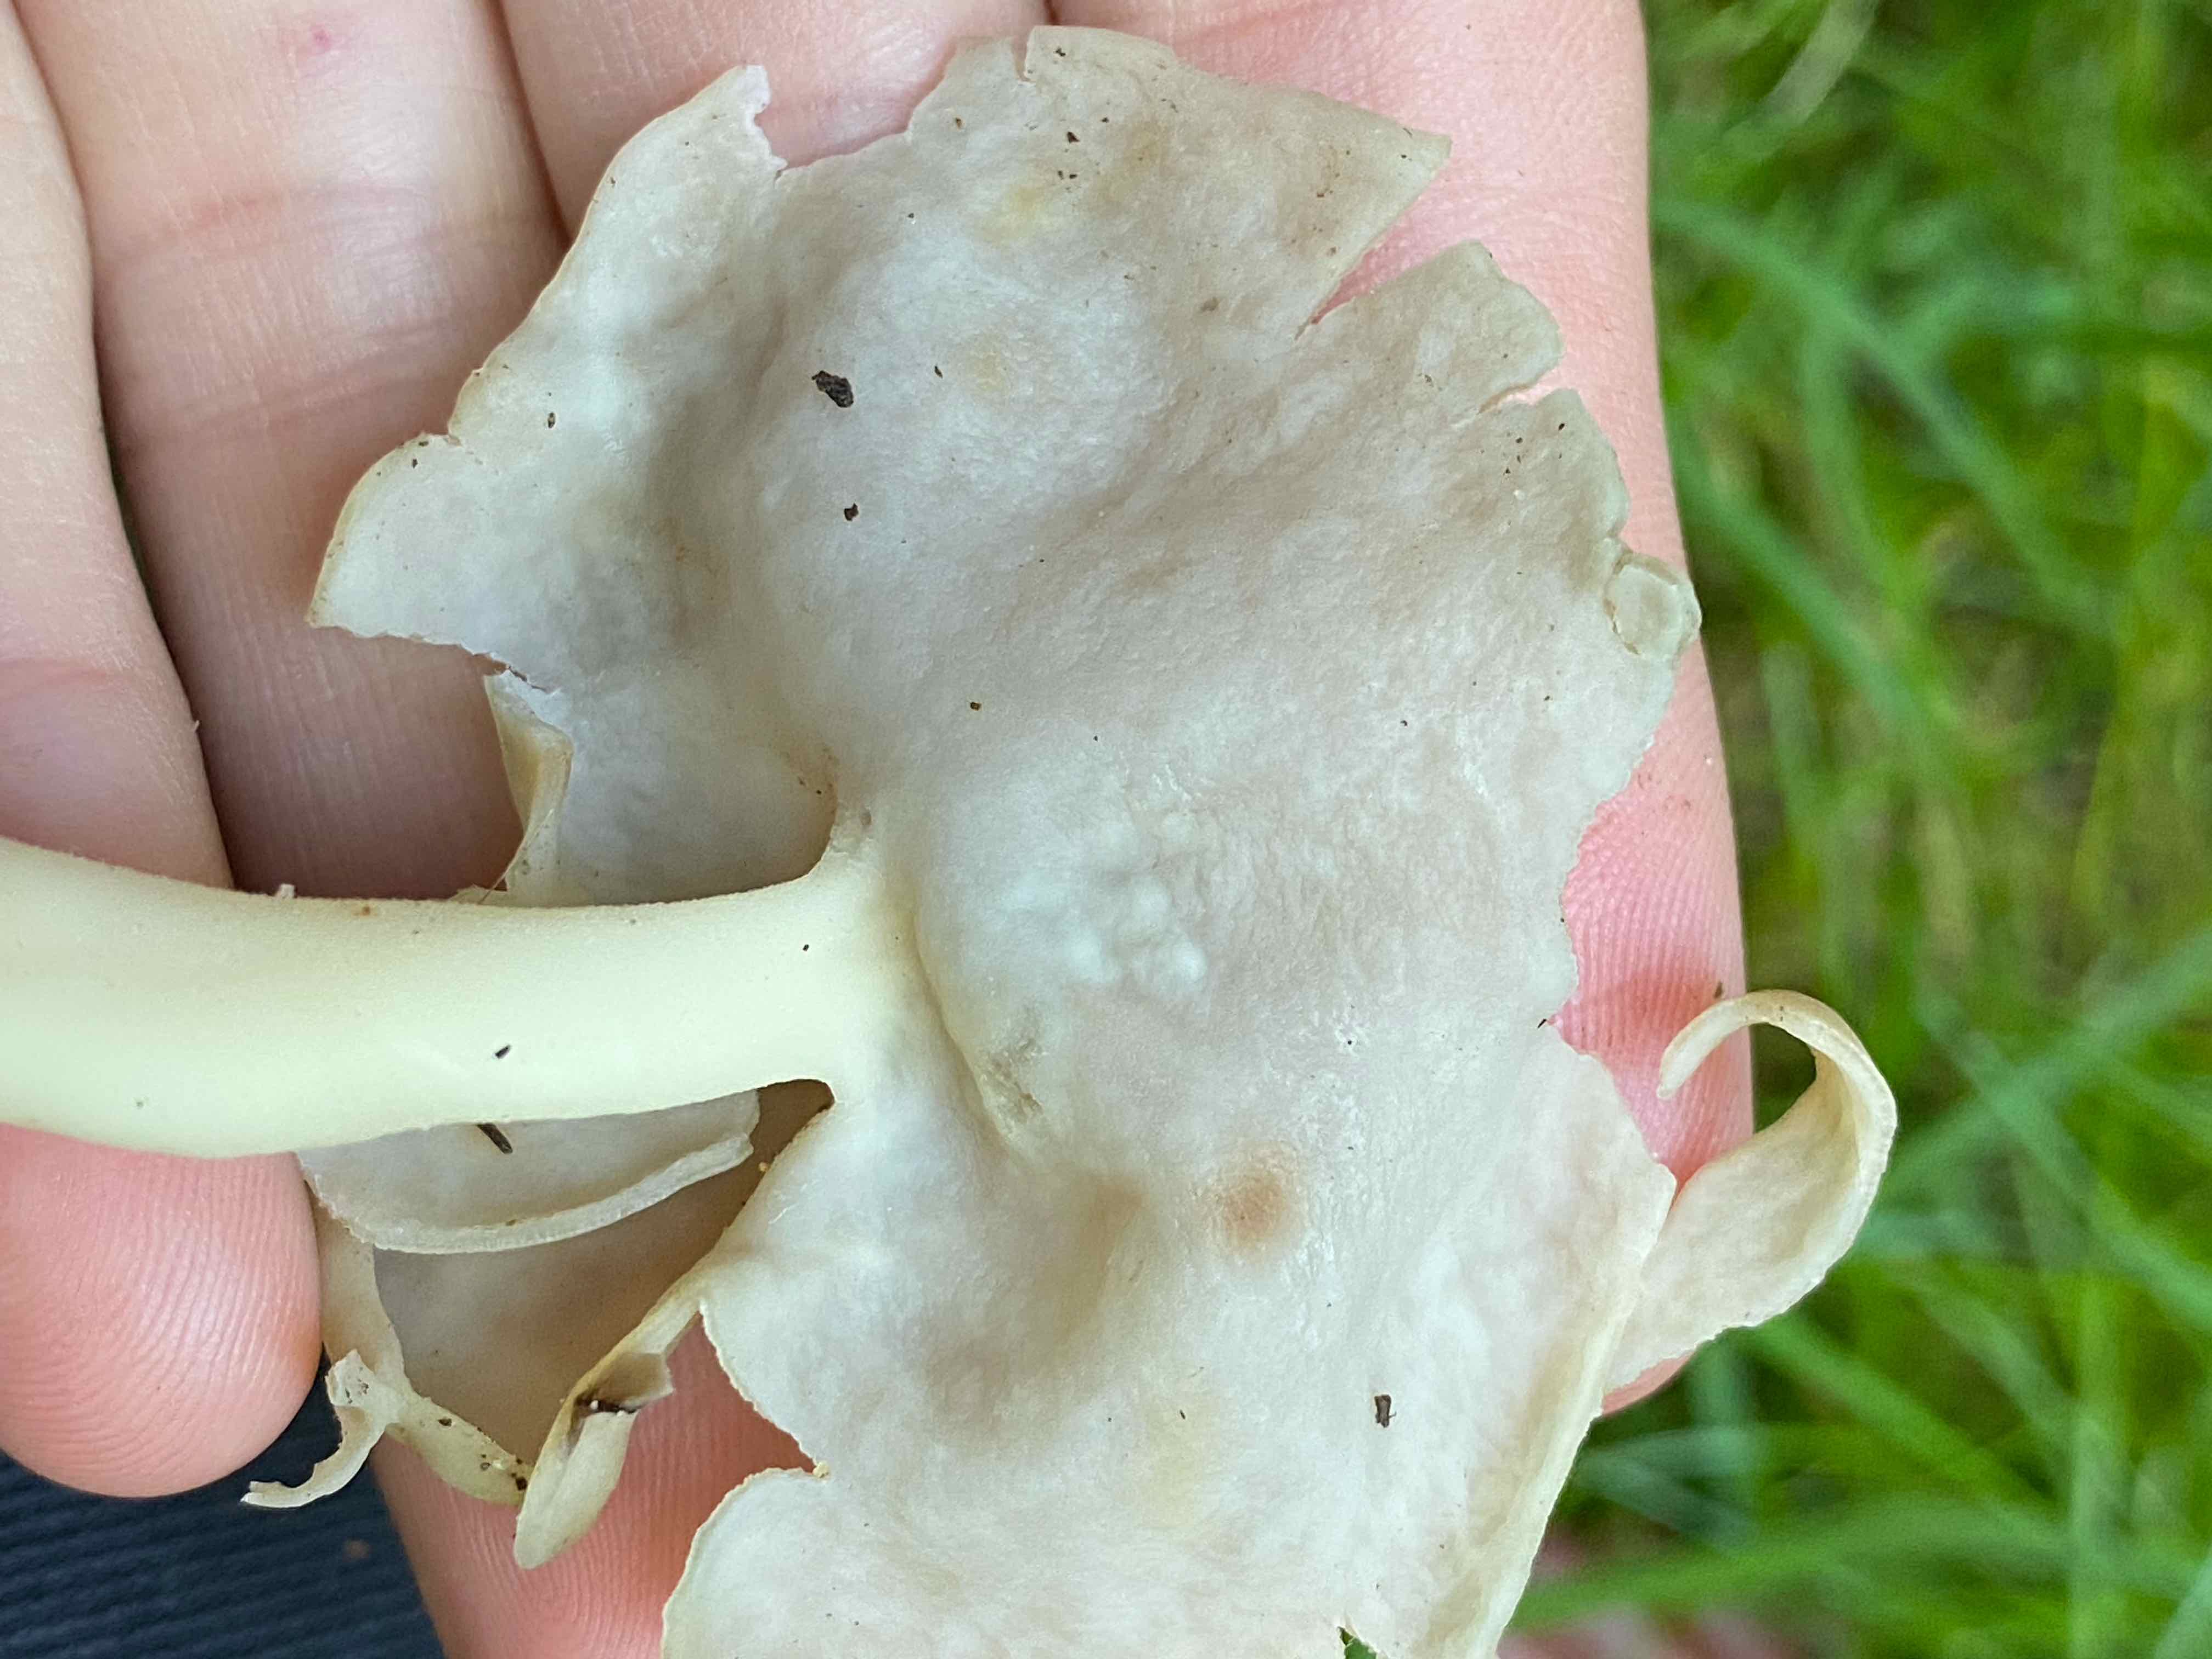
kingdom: Fungi
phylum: Ascomycota
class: Pezizomycetes
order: Pezizales
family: Helvellaceae
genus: Helvella
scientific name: Helvella elastica
